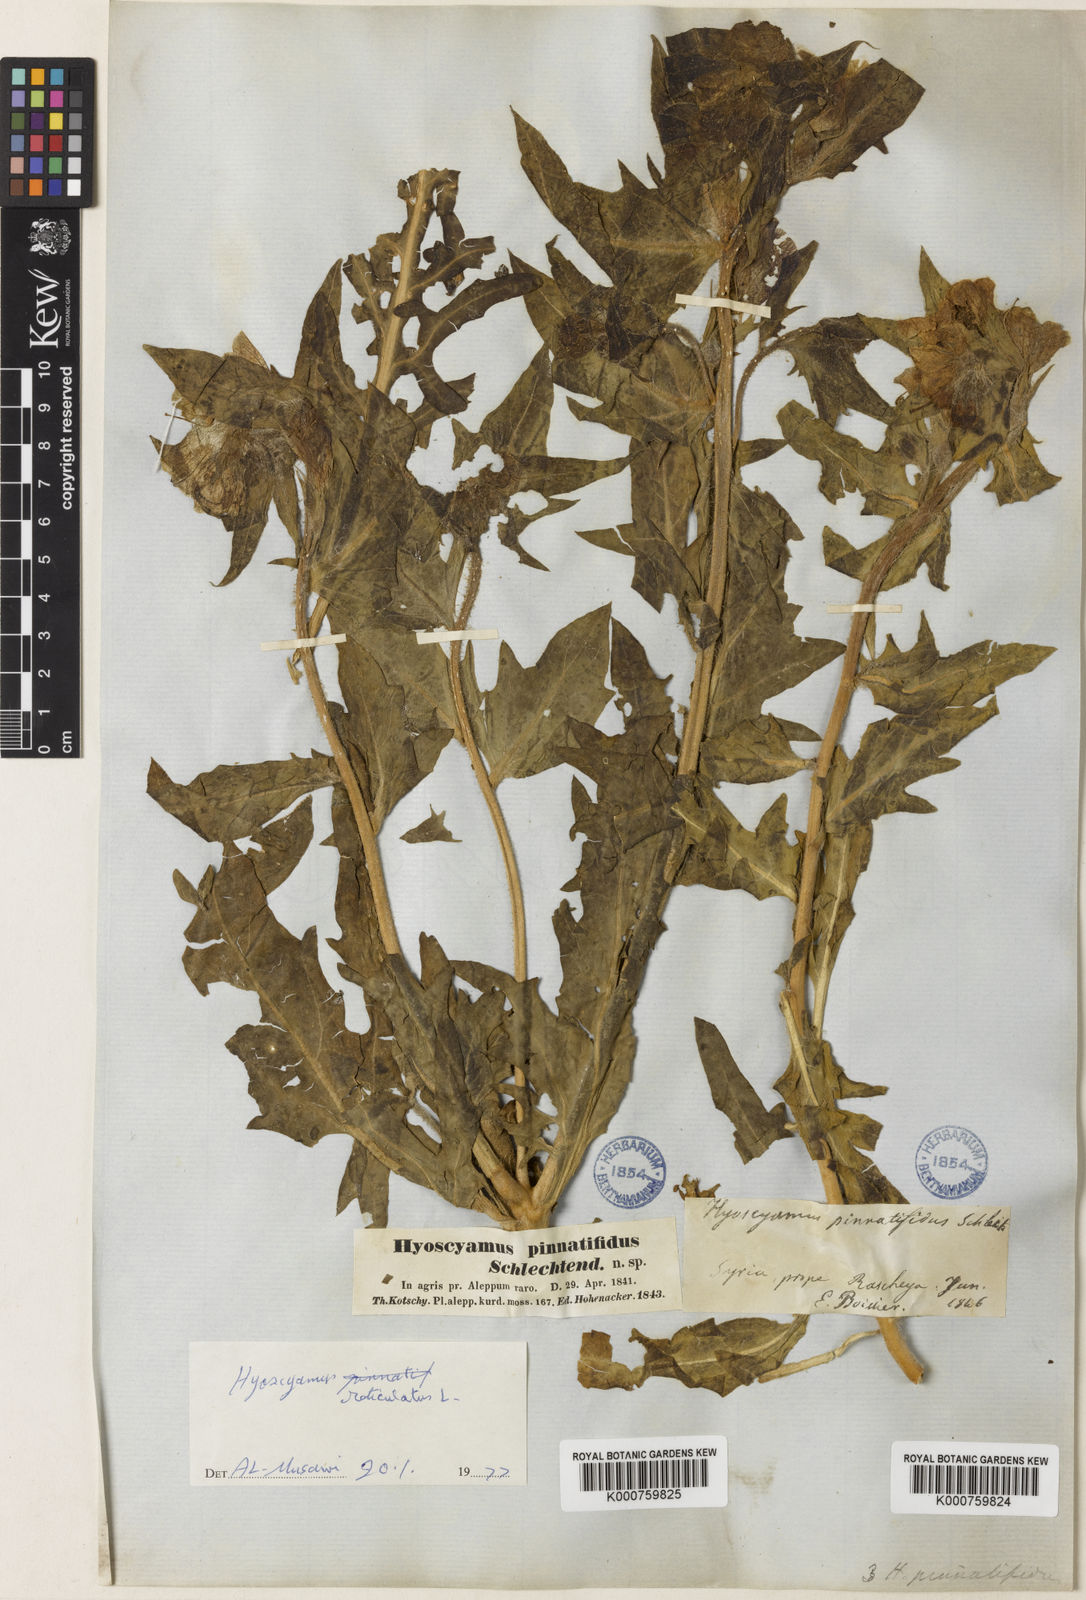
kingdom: Plantae
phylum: Tracheophyta
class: Magnoliopsida
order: Solanales
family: Solanaceae
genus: Hyoscyamus
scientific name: Hyoscyamus reticulatus
